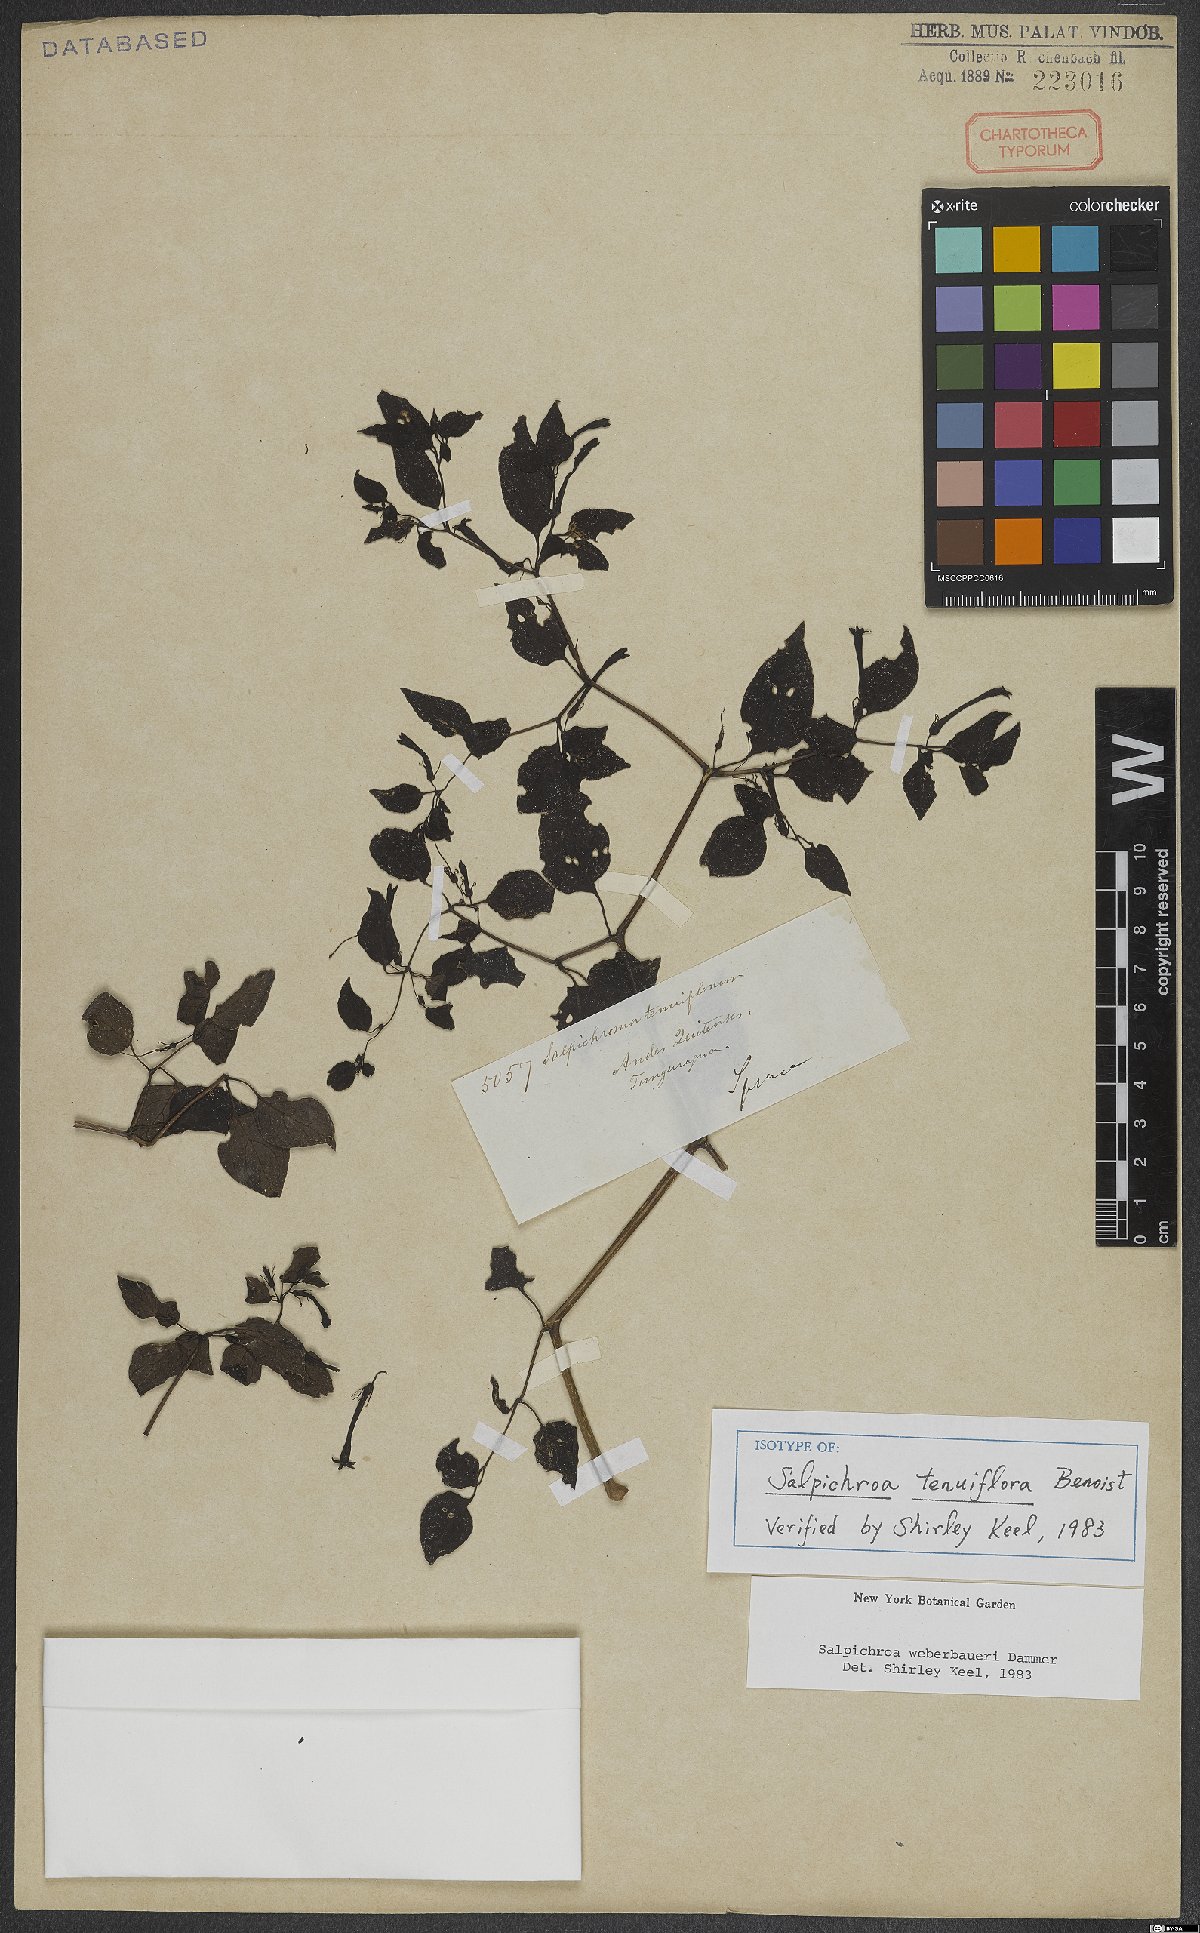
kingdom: Plantae
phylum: Tracheophyta
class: Magnoliopsida
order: Solanales
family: Solanaceae
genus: Salpichroa
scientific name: Salpichroa weberbaueri
